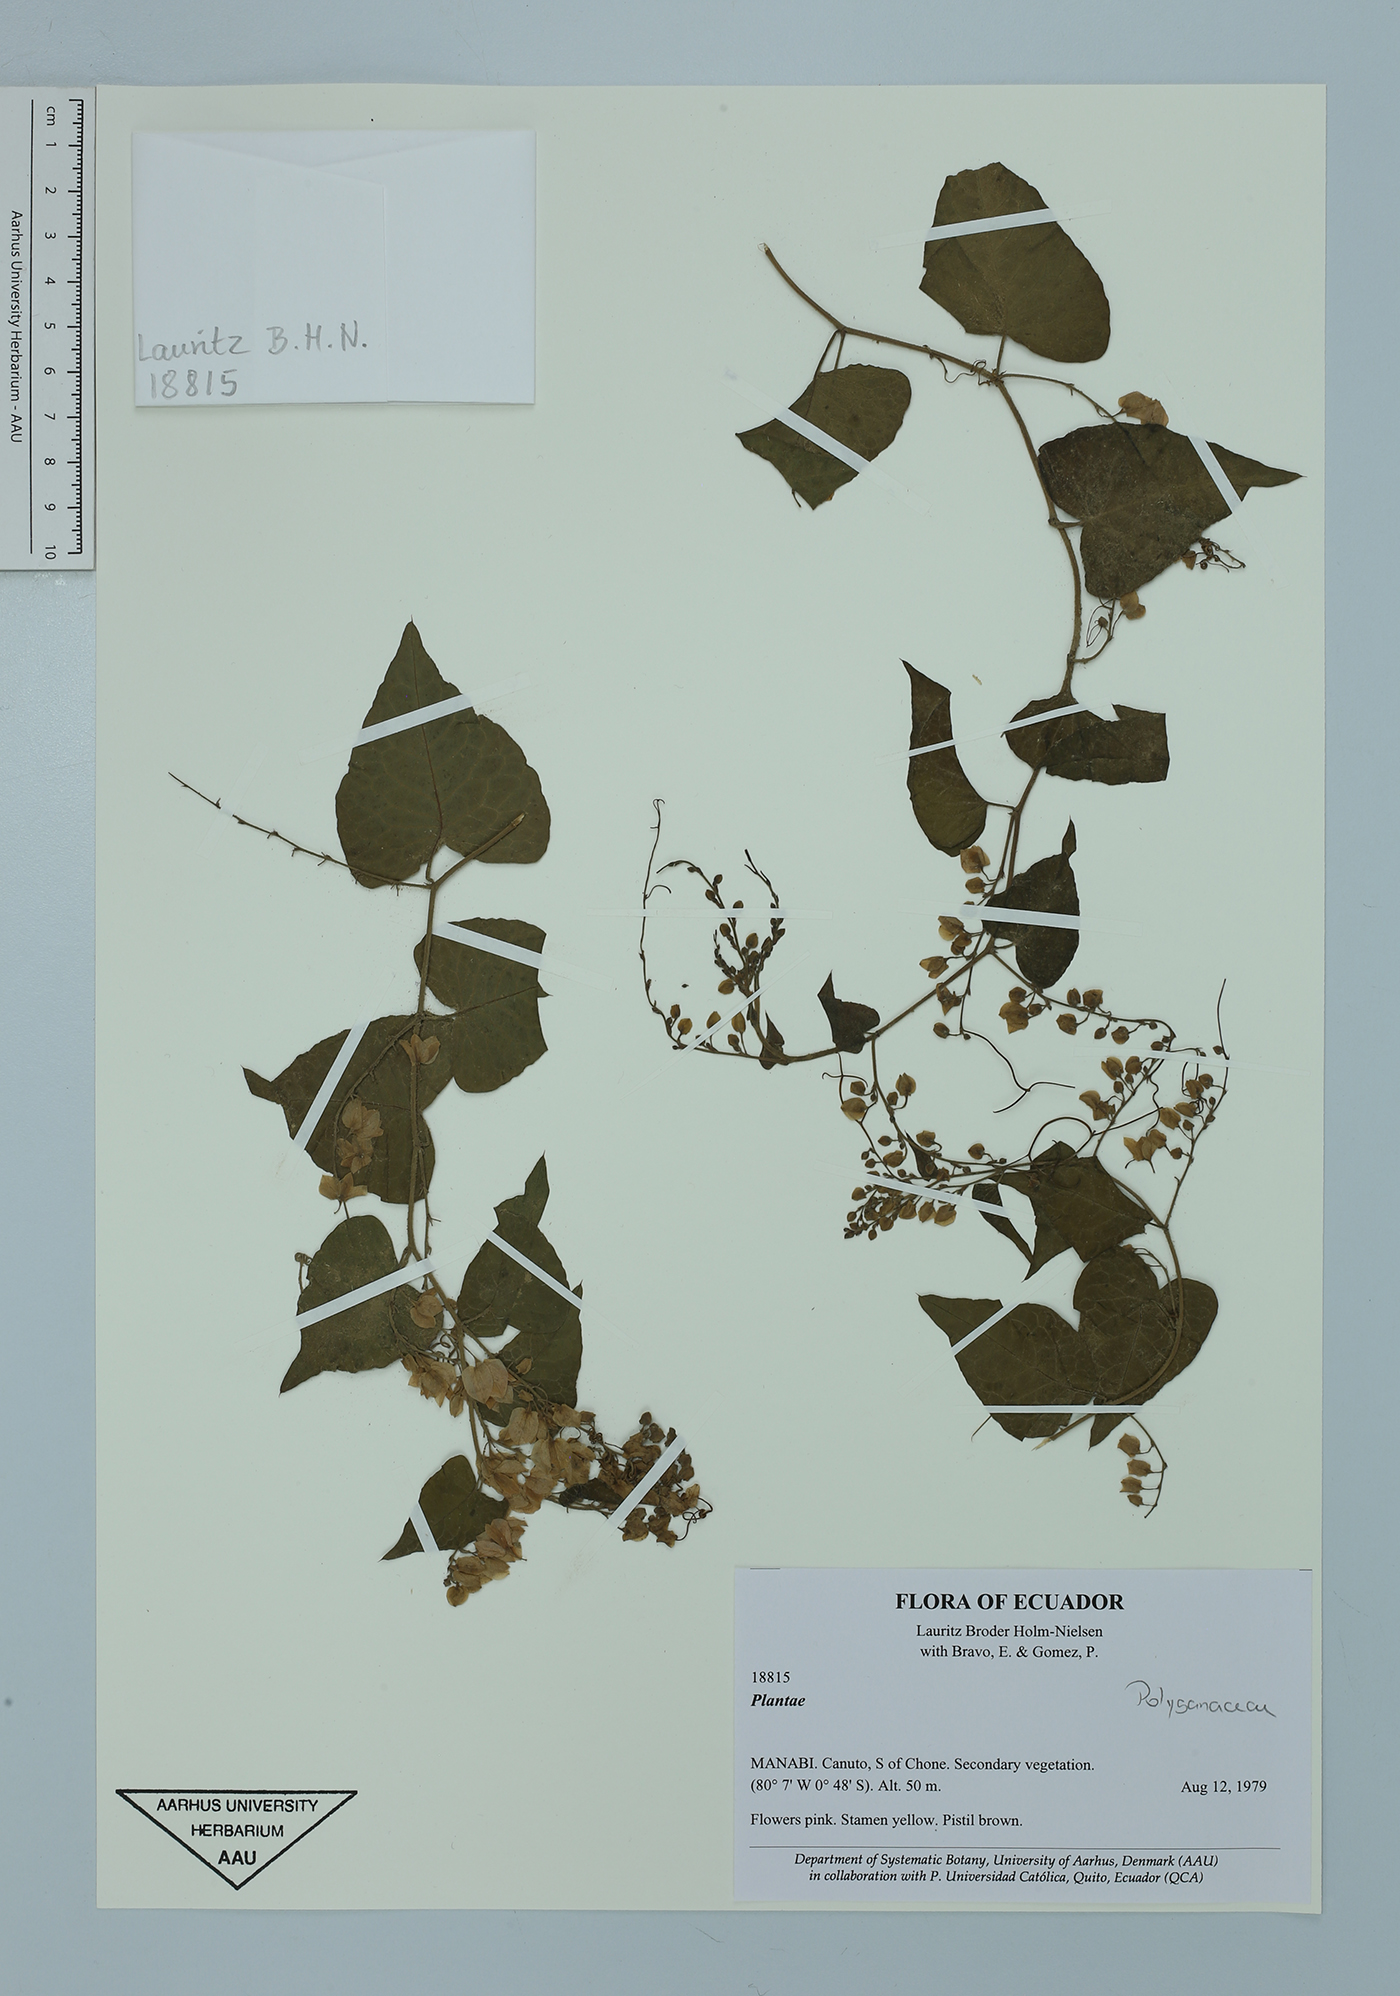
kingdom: Plantae
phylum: Tracheophyta
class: Magnoliopsida
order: Caryophyllales
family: Polygonaceae
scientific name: Polygonaceae
